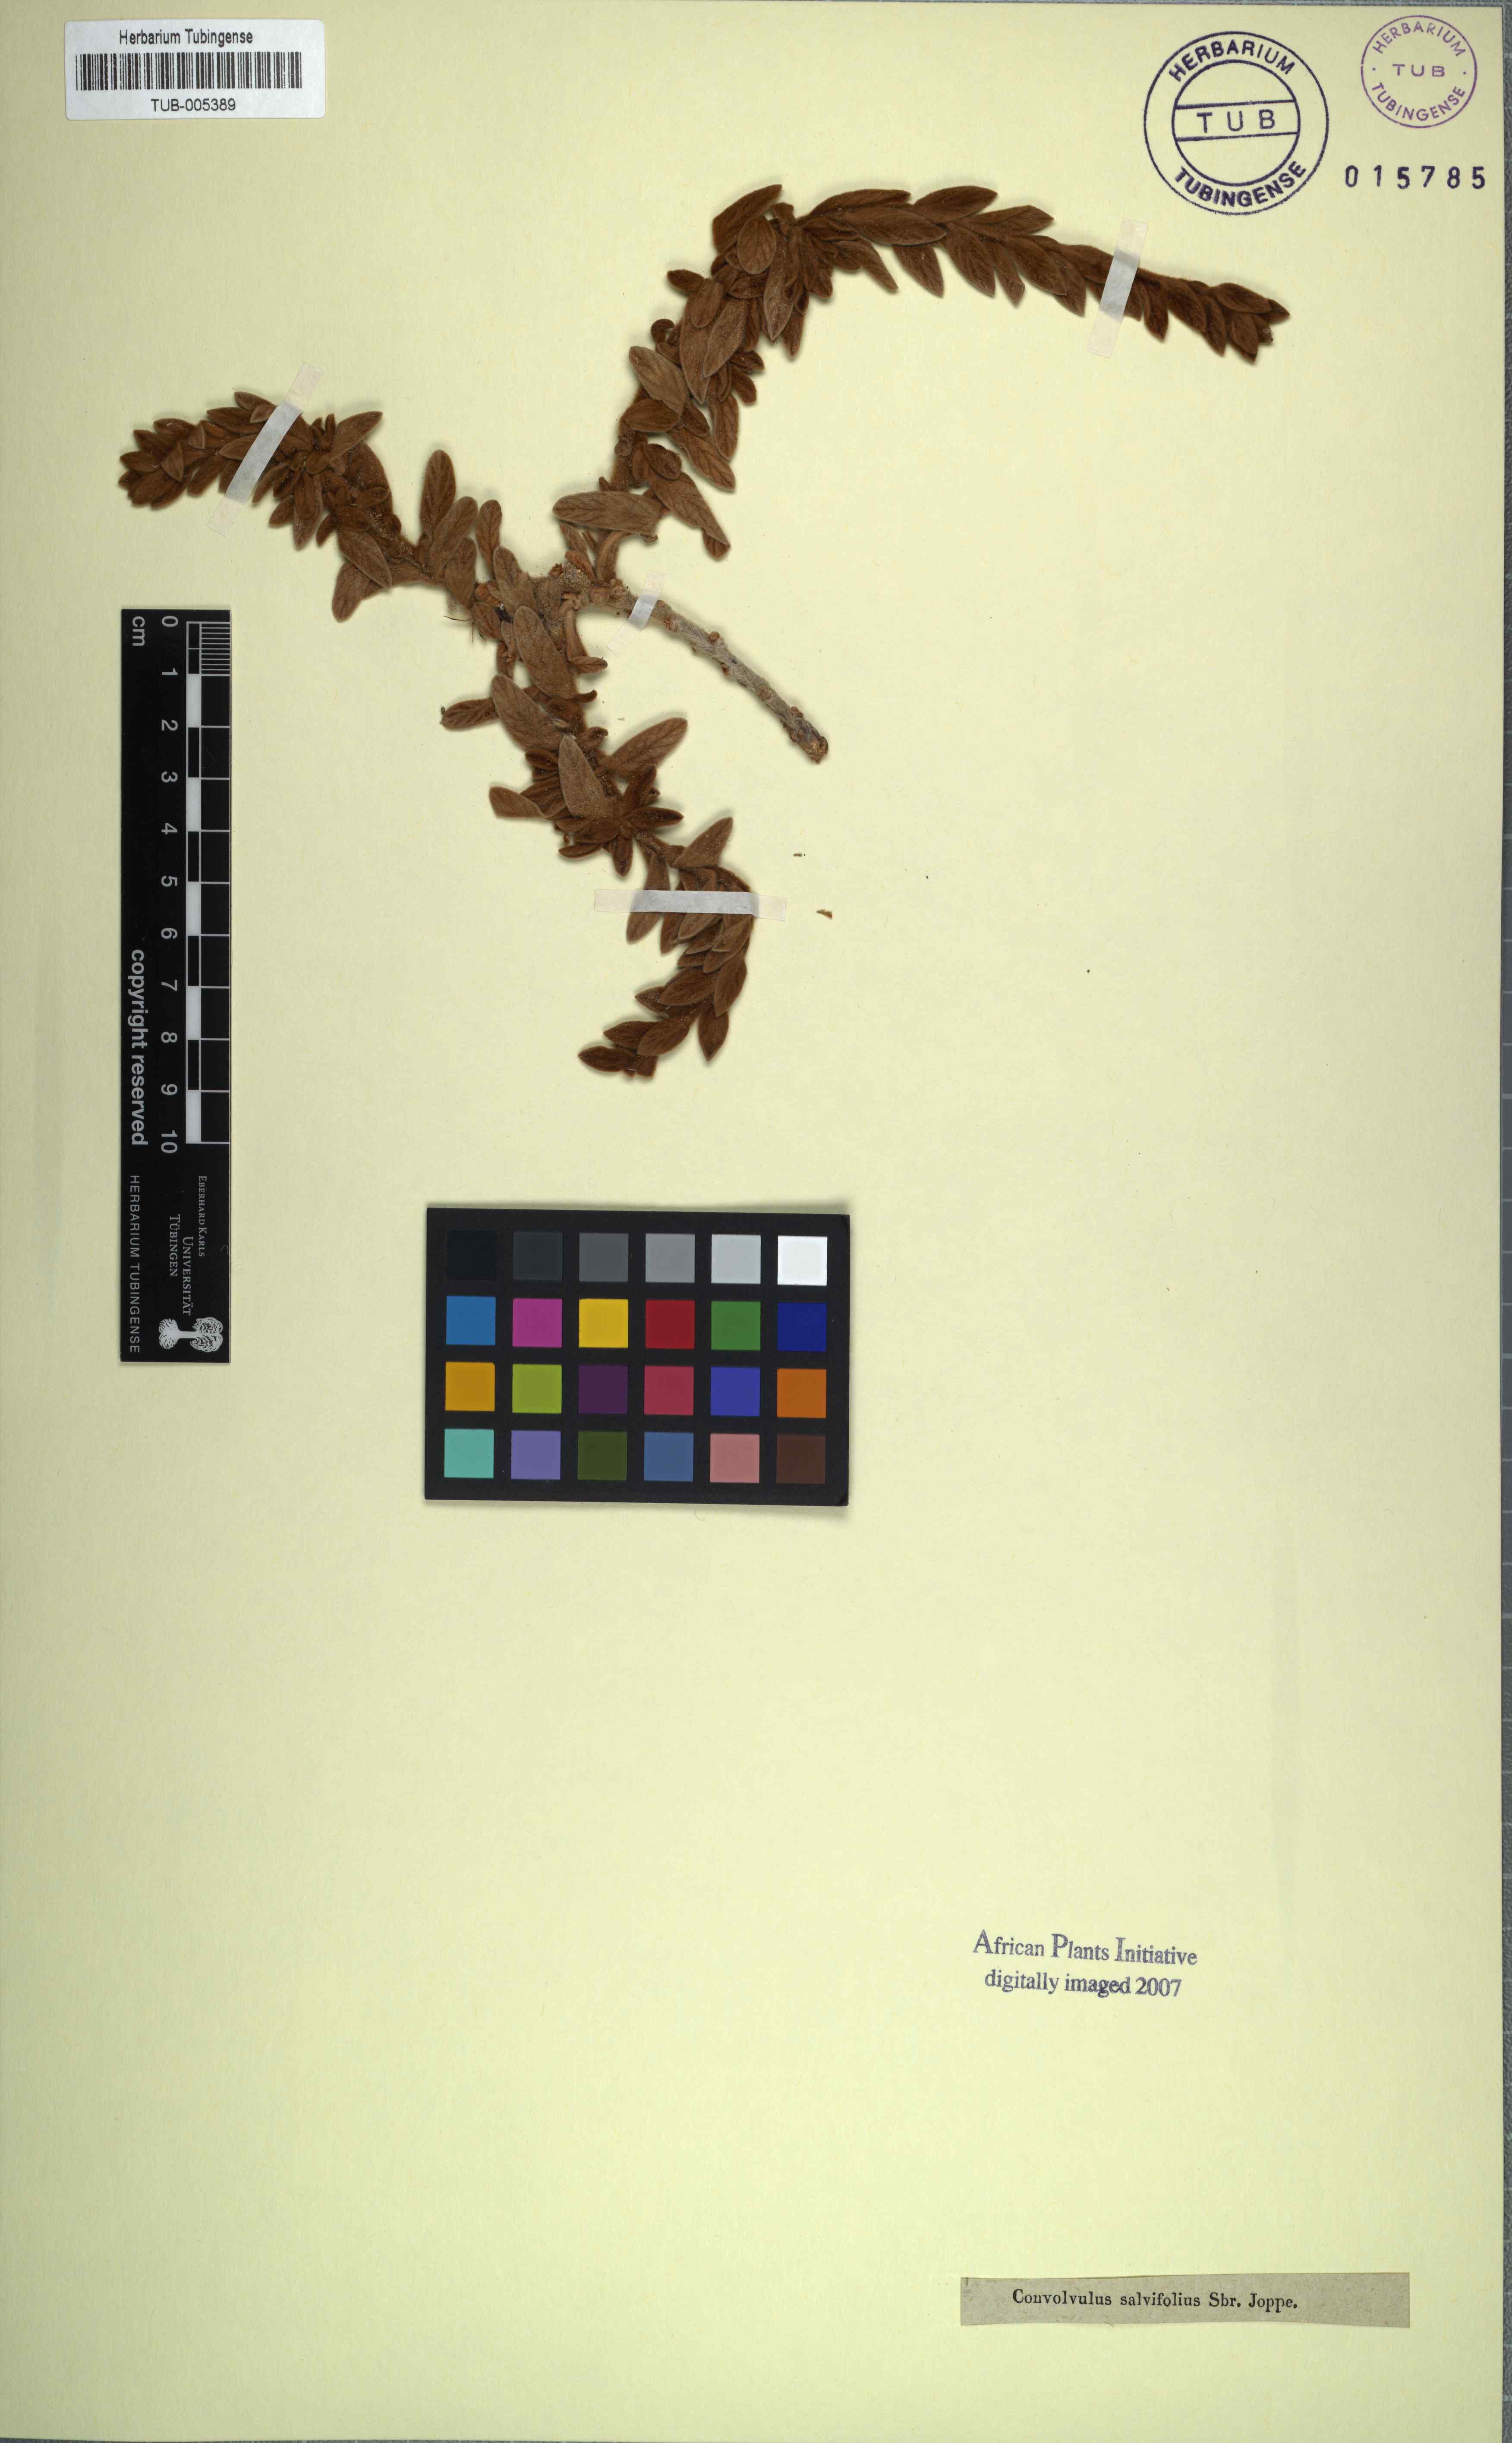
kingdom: Plantae
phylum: Tracheophyta
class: Magnoliopsida
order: Solanales
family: Convolvulaceae
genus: Convolvulus
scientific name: Convolvulus secundus
